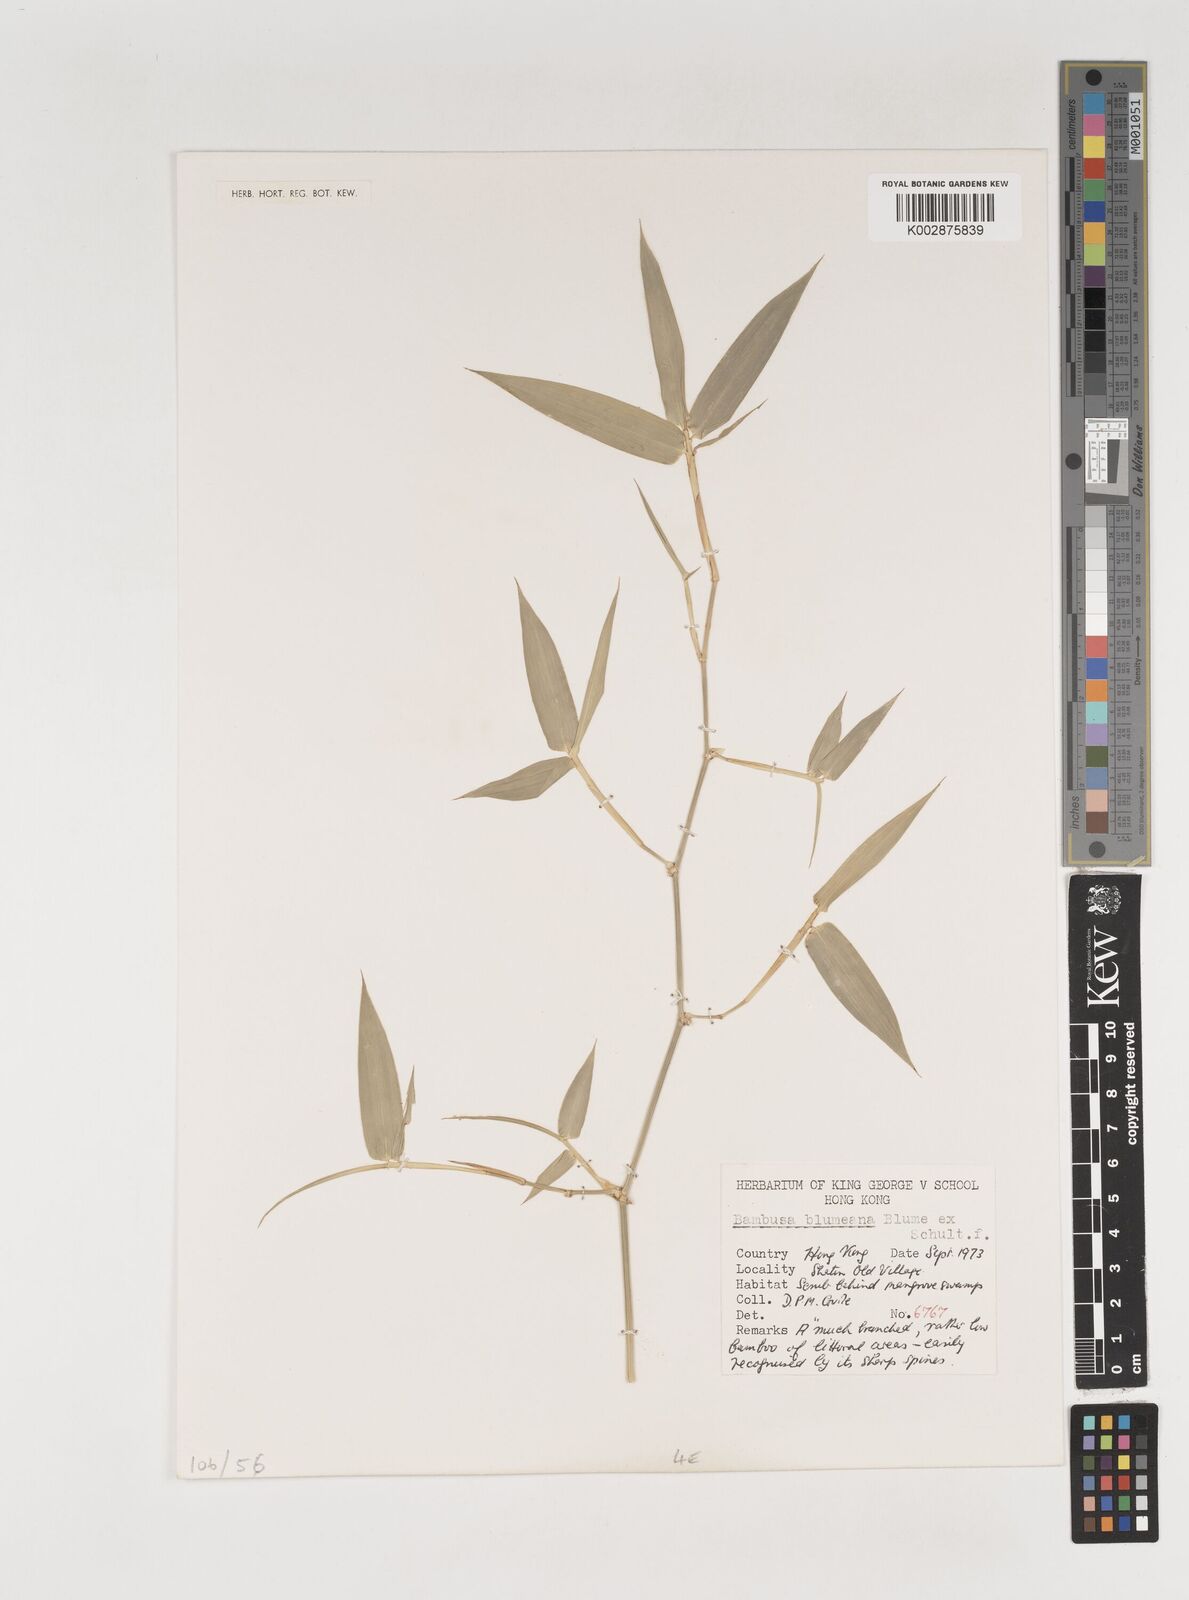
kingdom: Plantae
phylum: Tracheophyta
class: Liliopsida
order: Poales
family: Poaceae
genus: Bambusa
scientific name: Bambusa spinosa
